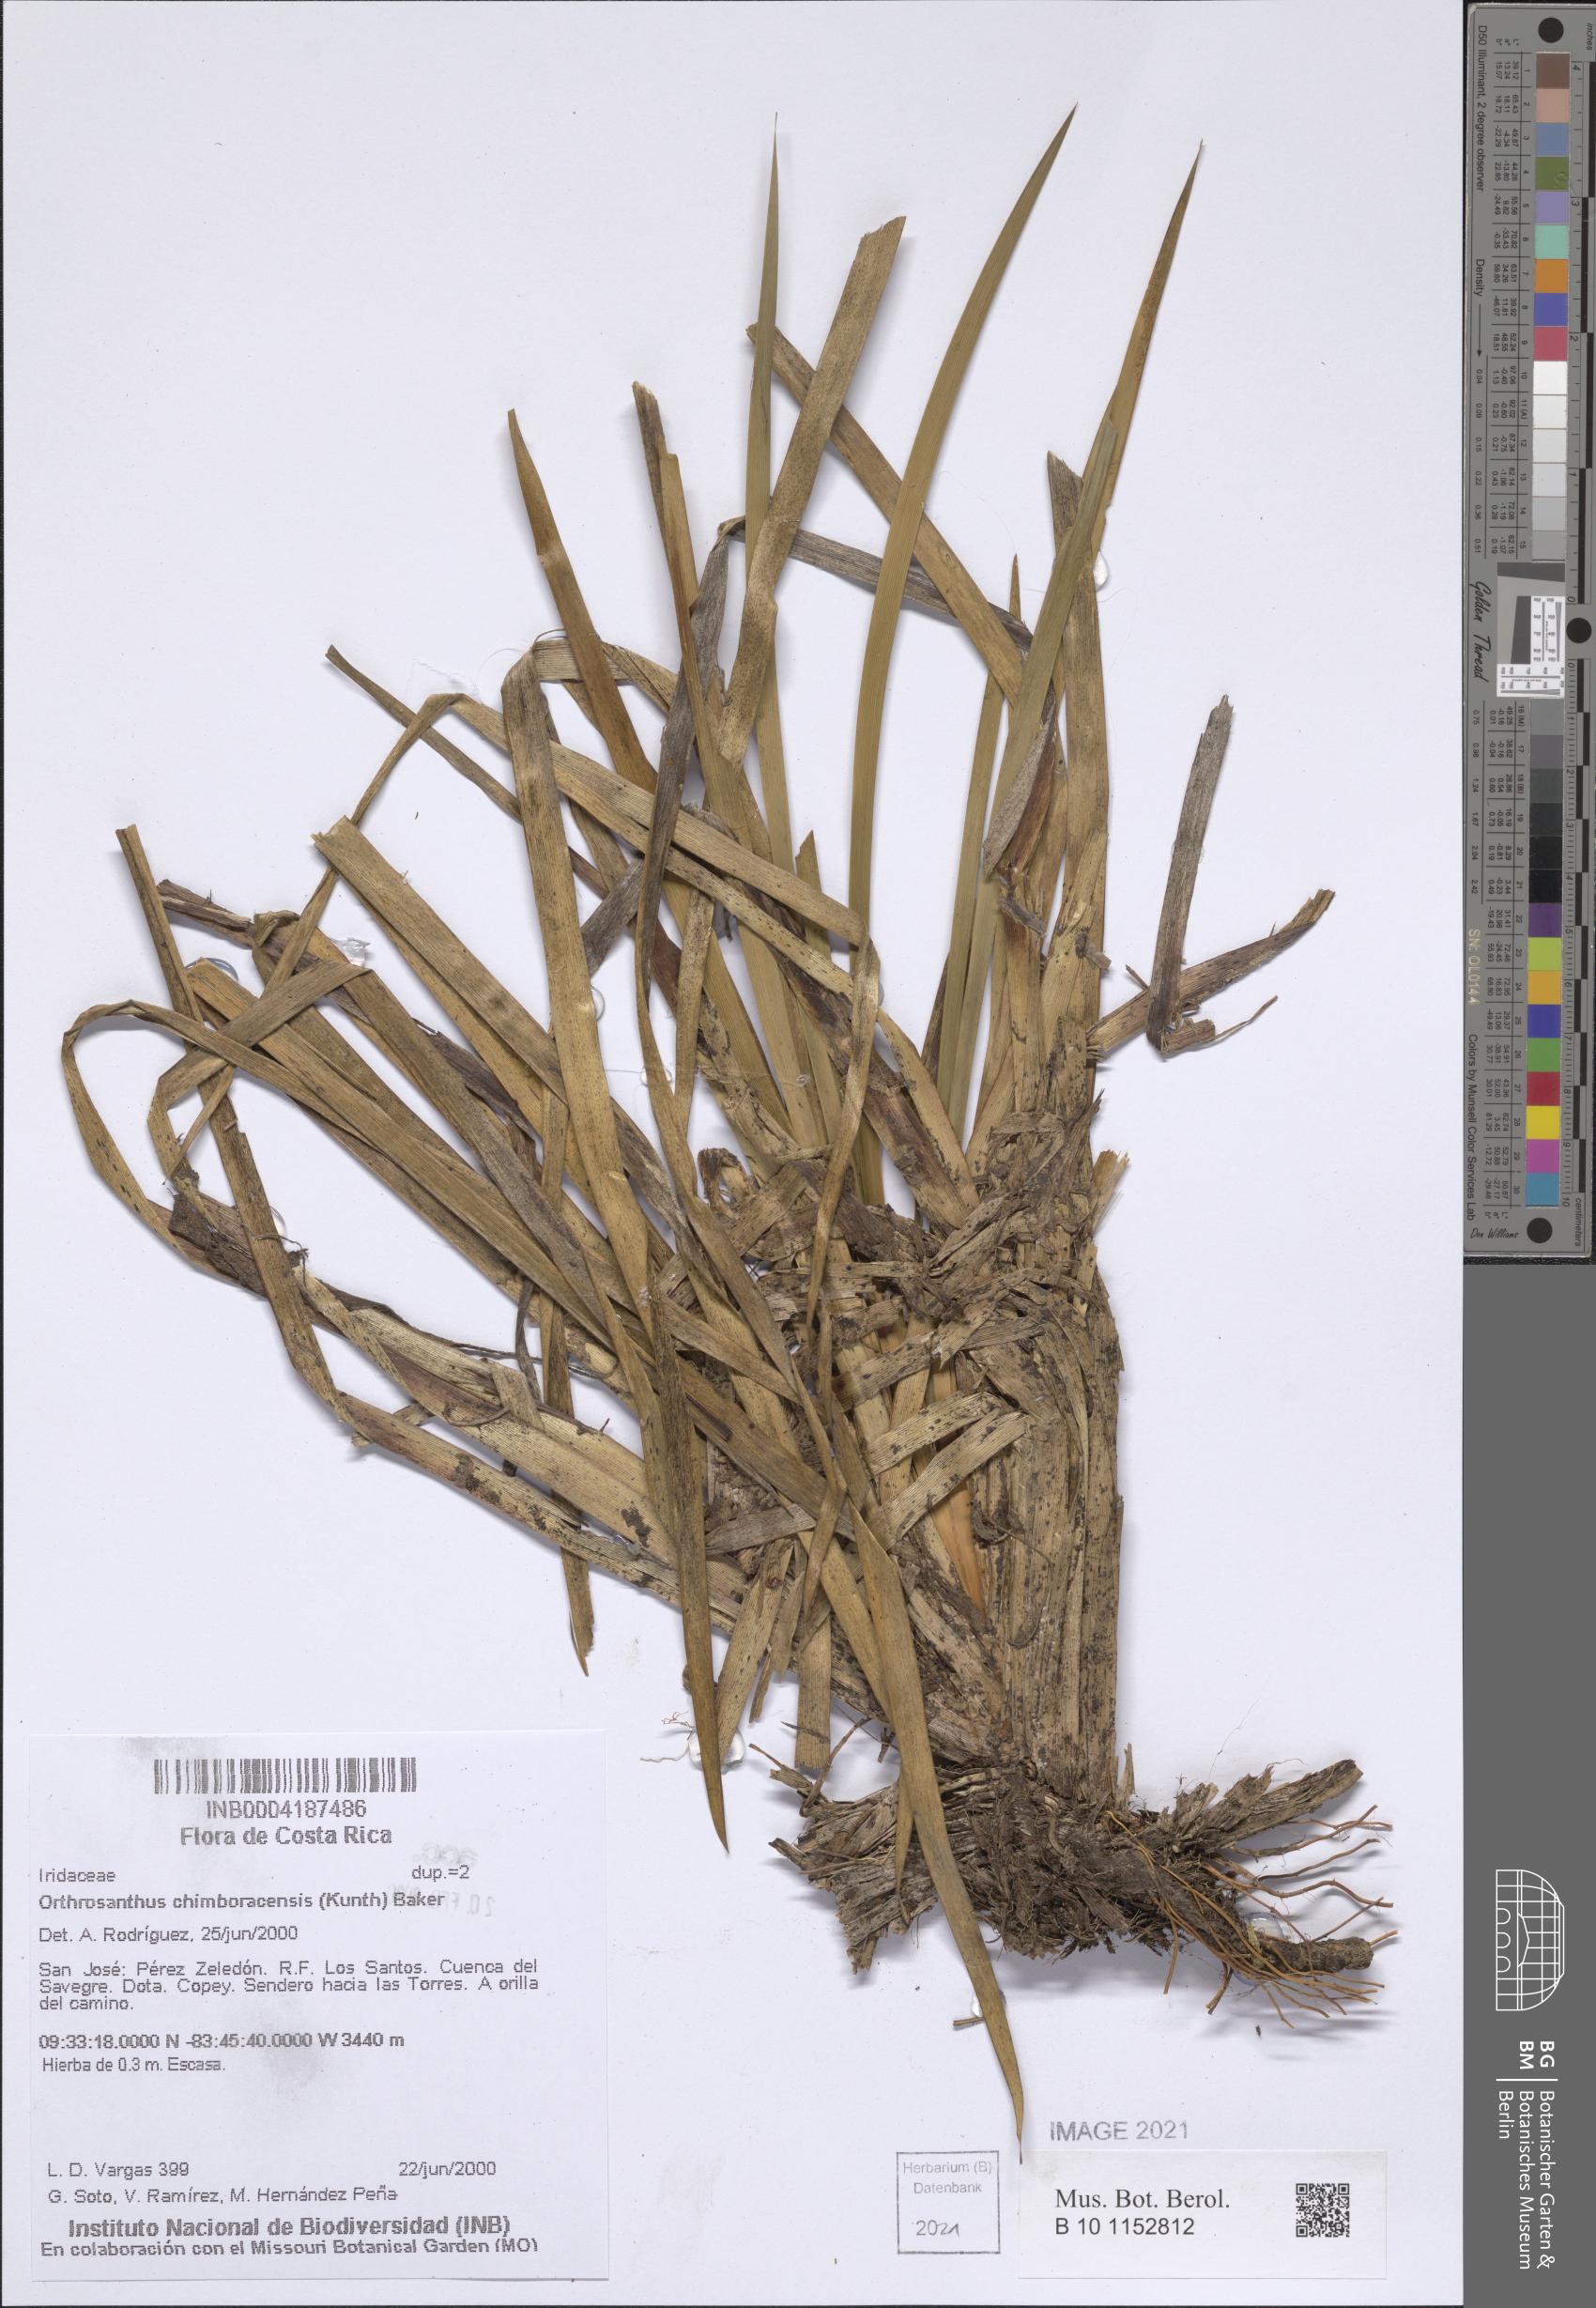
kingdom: Plantae
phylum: Tracheophyta
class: Liliopsida
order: Asparagales
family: Iridaceae
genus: Orthrosanthus
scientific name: Orthrosanthus chimboracensis
